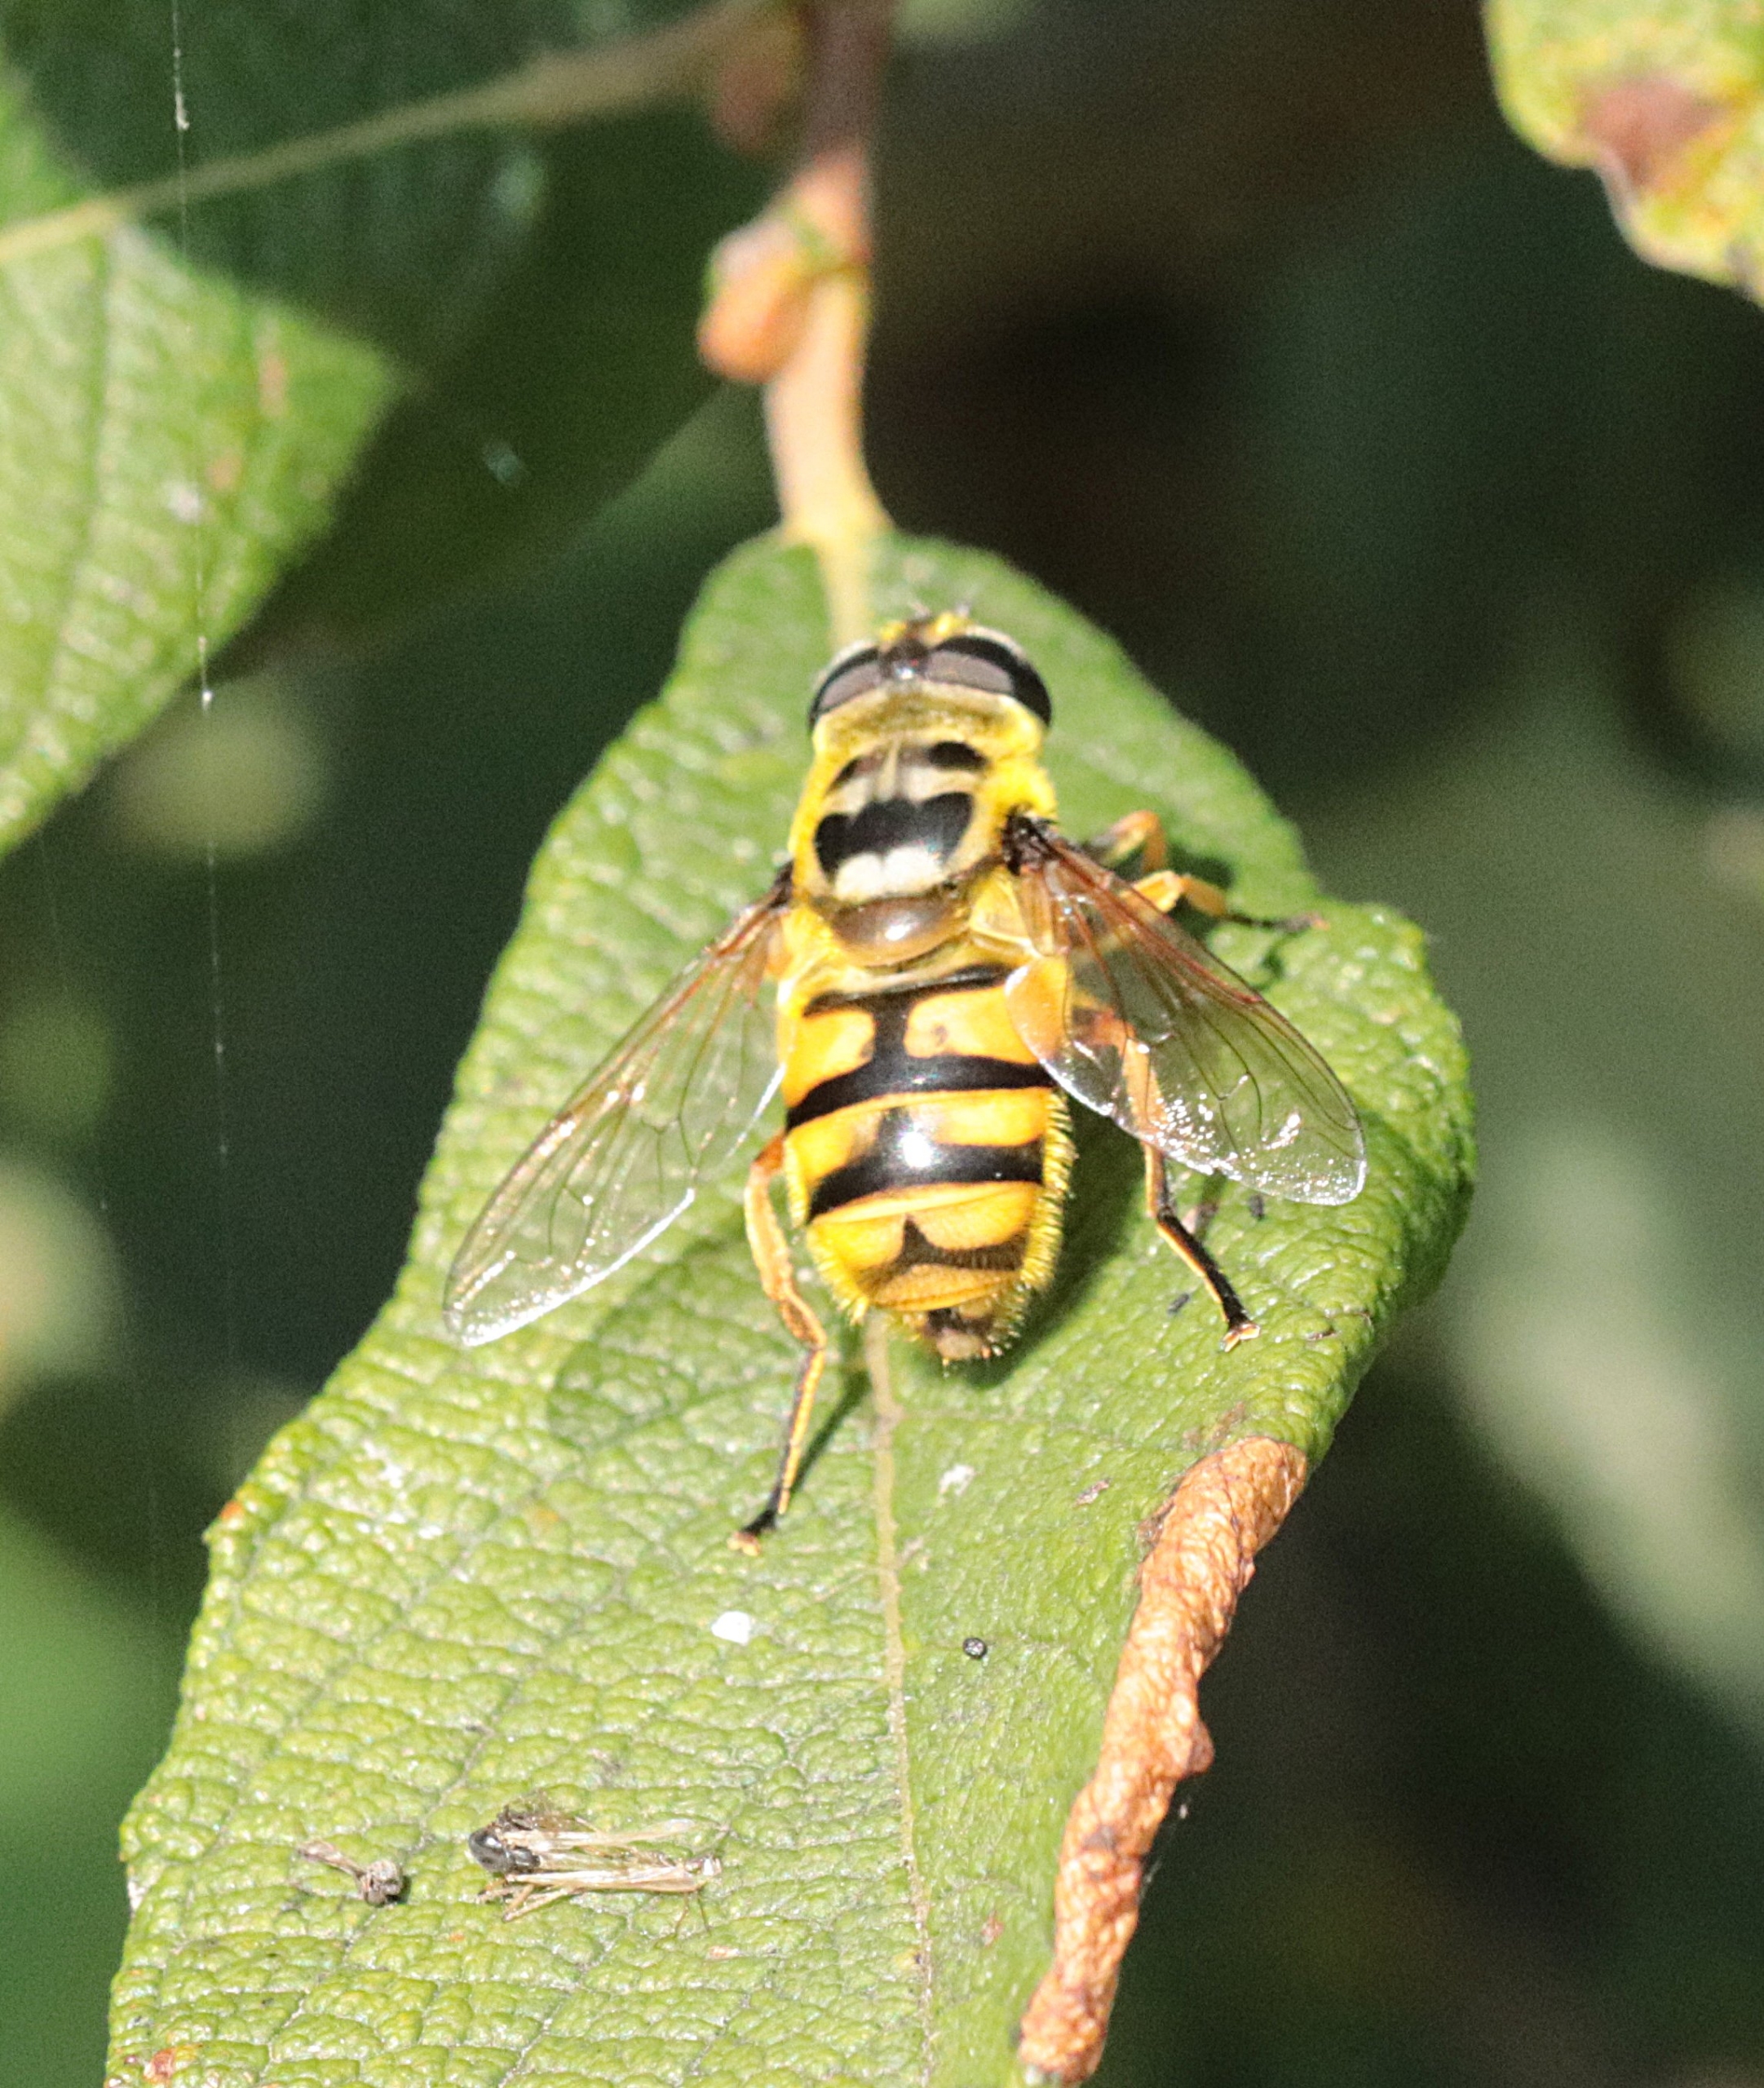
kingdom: Animalia
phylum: Arthropoda
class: Insecta
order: Diptera
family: Syrphidae
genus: Myathropa
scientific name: Myathropa florea
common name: Dødningehoved-svirreflue
